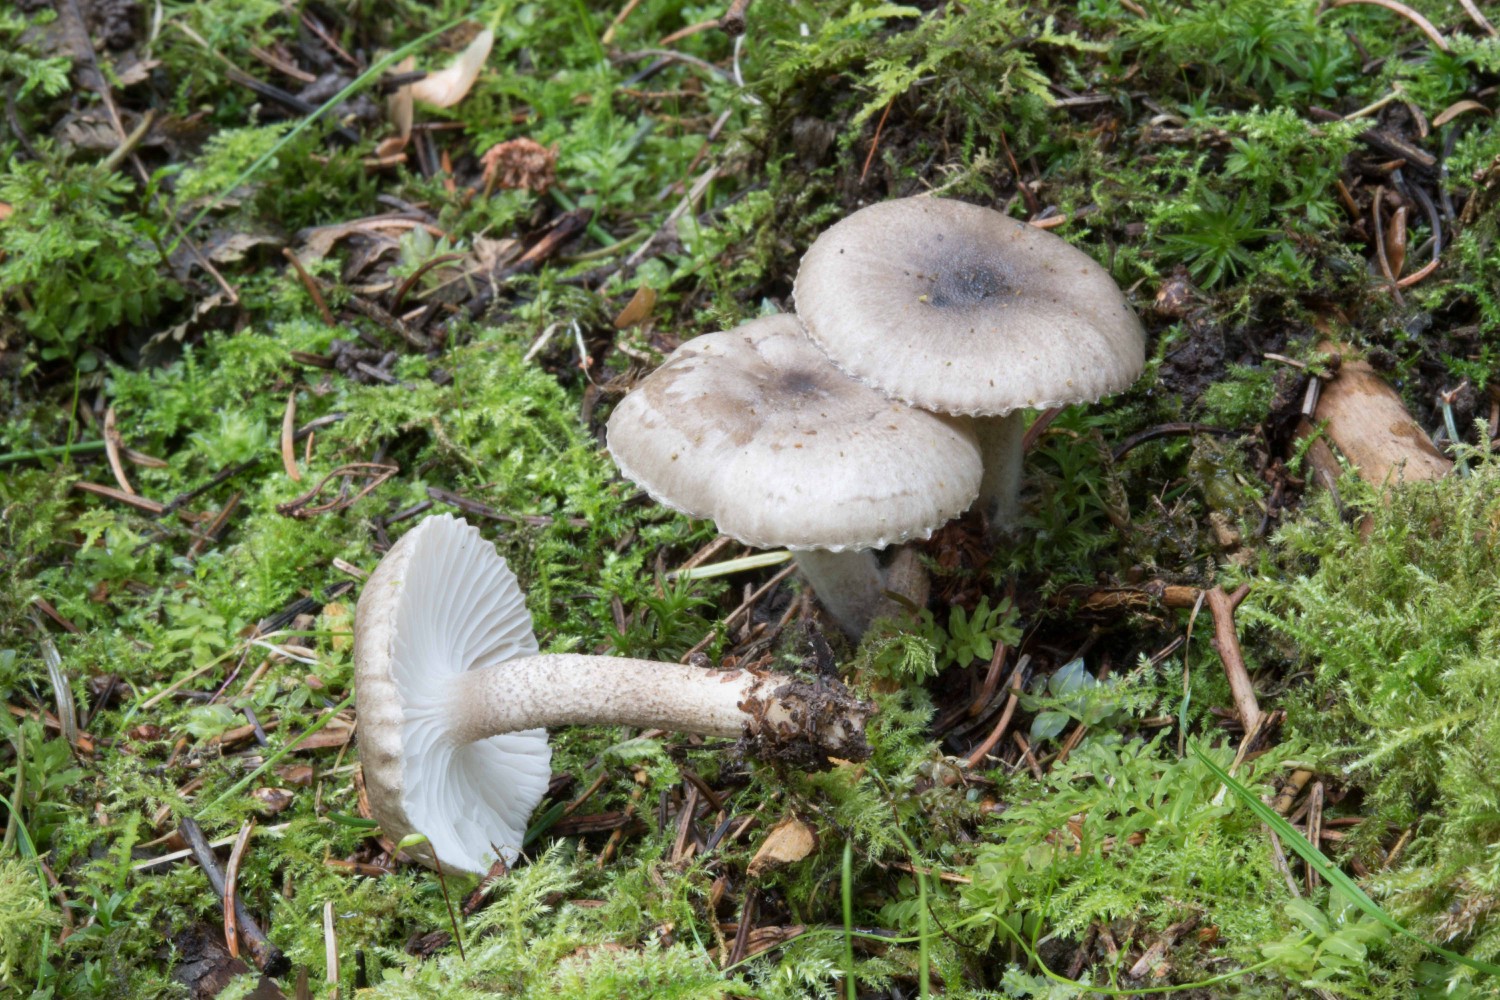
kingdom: Fungi
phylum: Basidiomycota
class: Agaricomycetes
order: Agaricales
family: Hygrophoraceae
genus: Hygrophorus
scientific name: Hygrophorus pustulatus
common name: mørkprikket sneglehat
